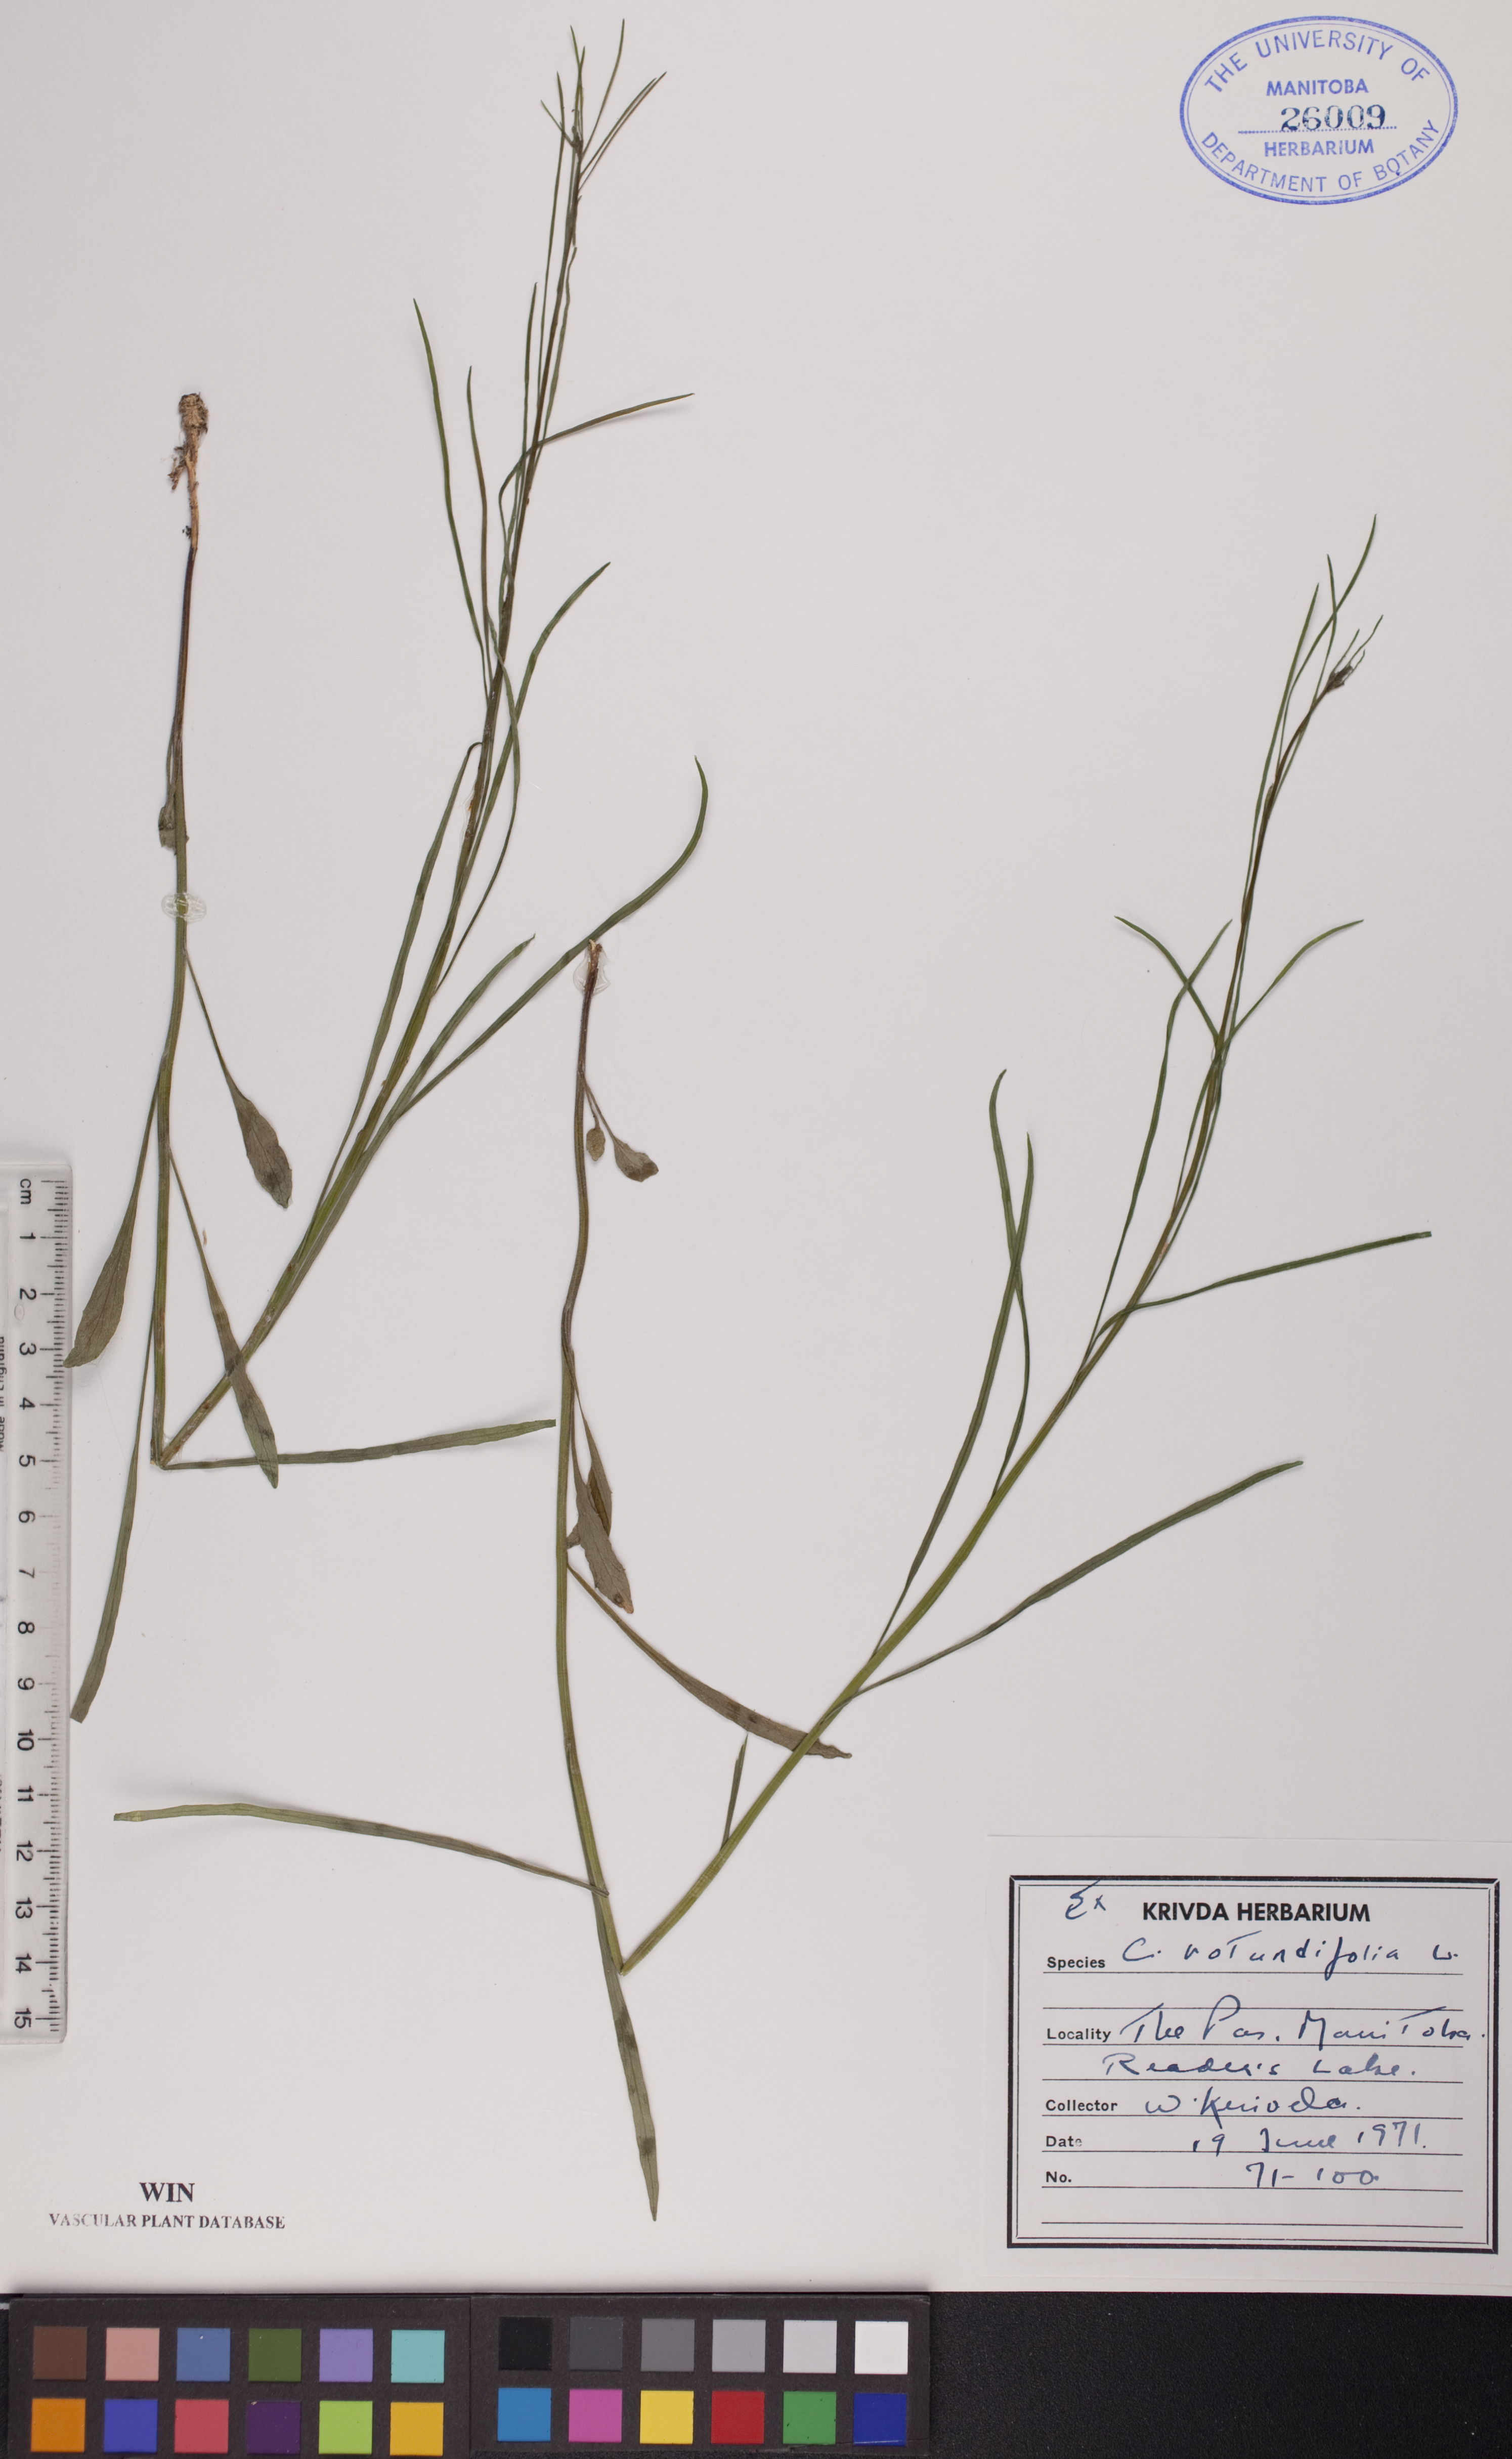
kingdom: Plantae
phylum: Tracheophyta
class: Magnoliopsida
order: Asterales
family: Campanulaceae
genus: Campanula
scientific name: Campanula rotundifolia
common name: Harebell
